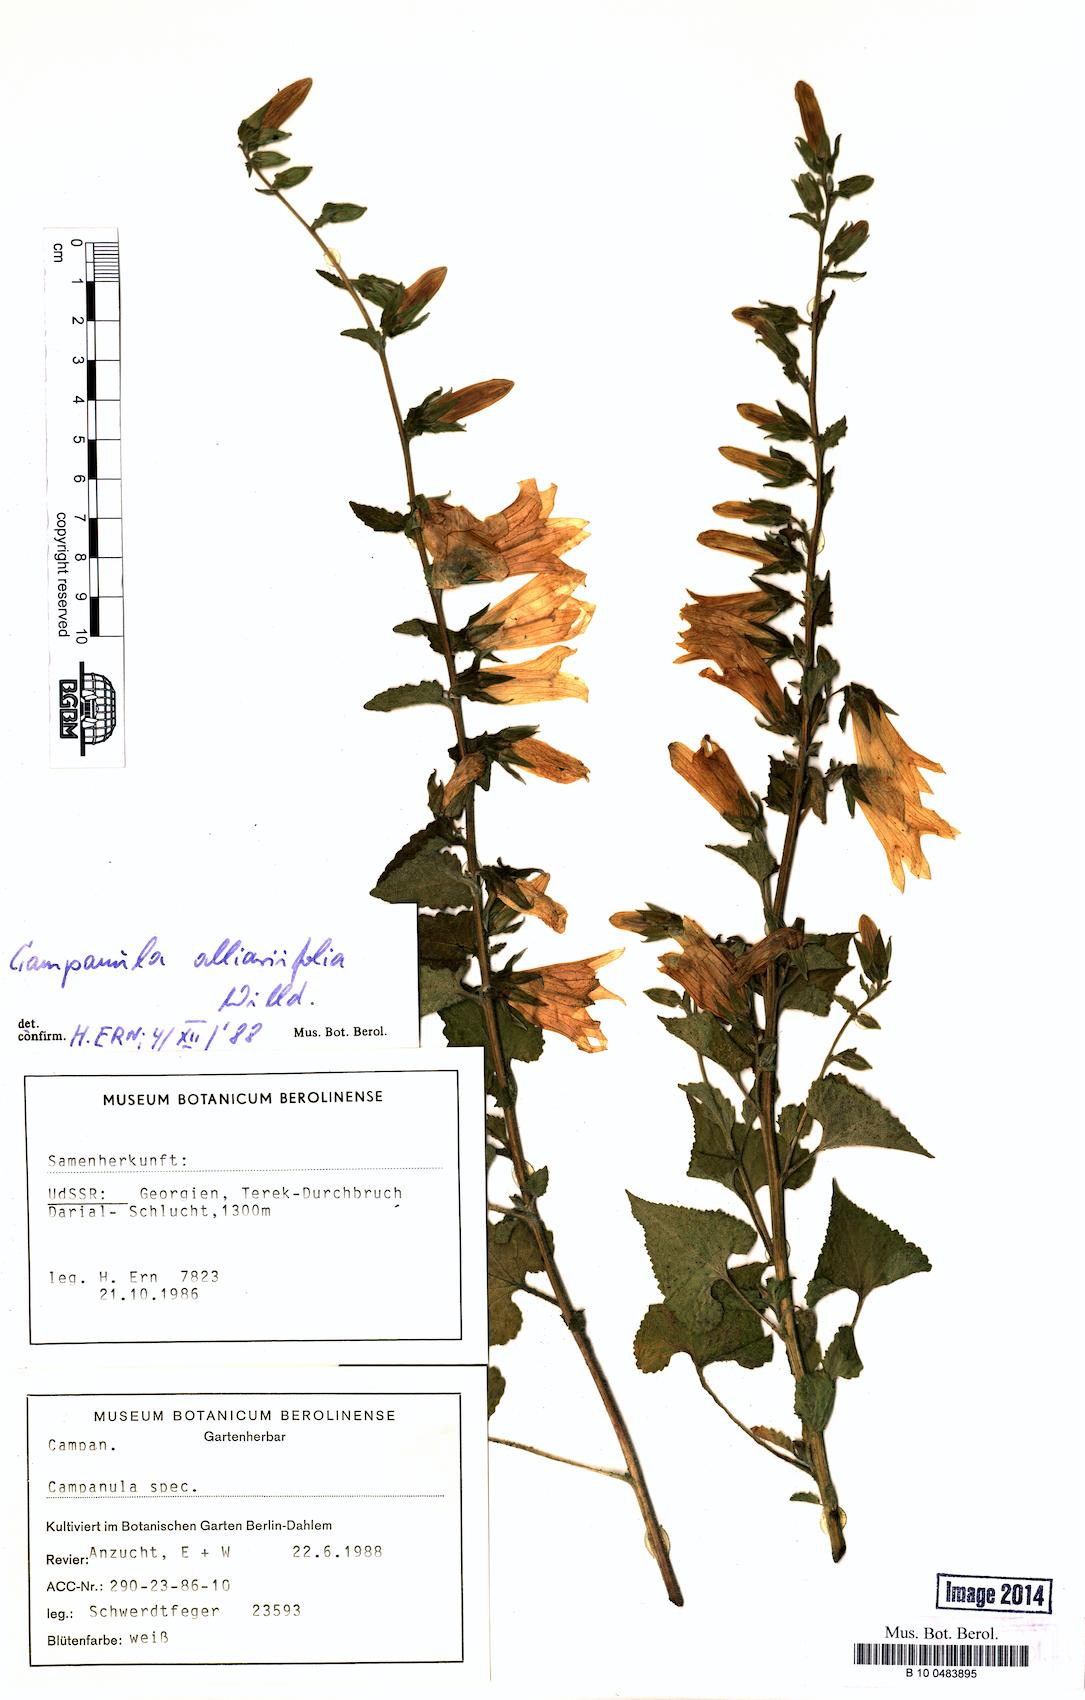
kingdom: Plantae
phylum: Tracheophyta
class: Magnoliopsida
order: Asterales
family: Campanulaceae
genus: Campanula
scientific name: Campanula alliariifolia
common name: Cornish bellflower
